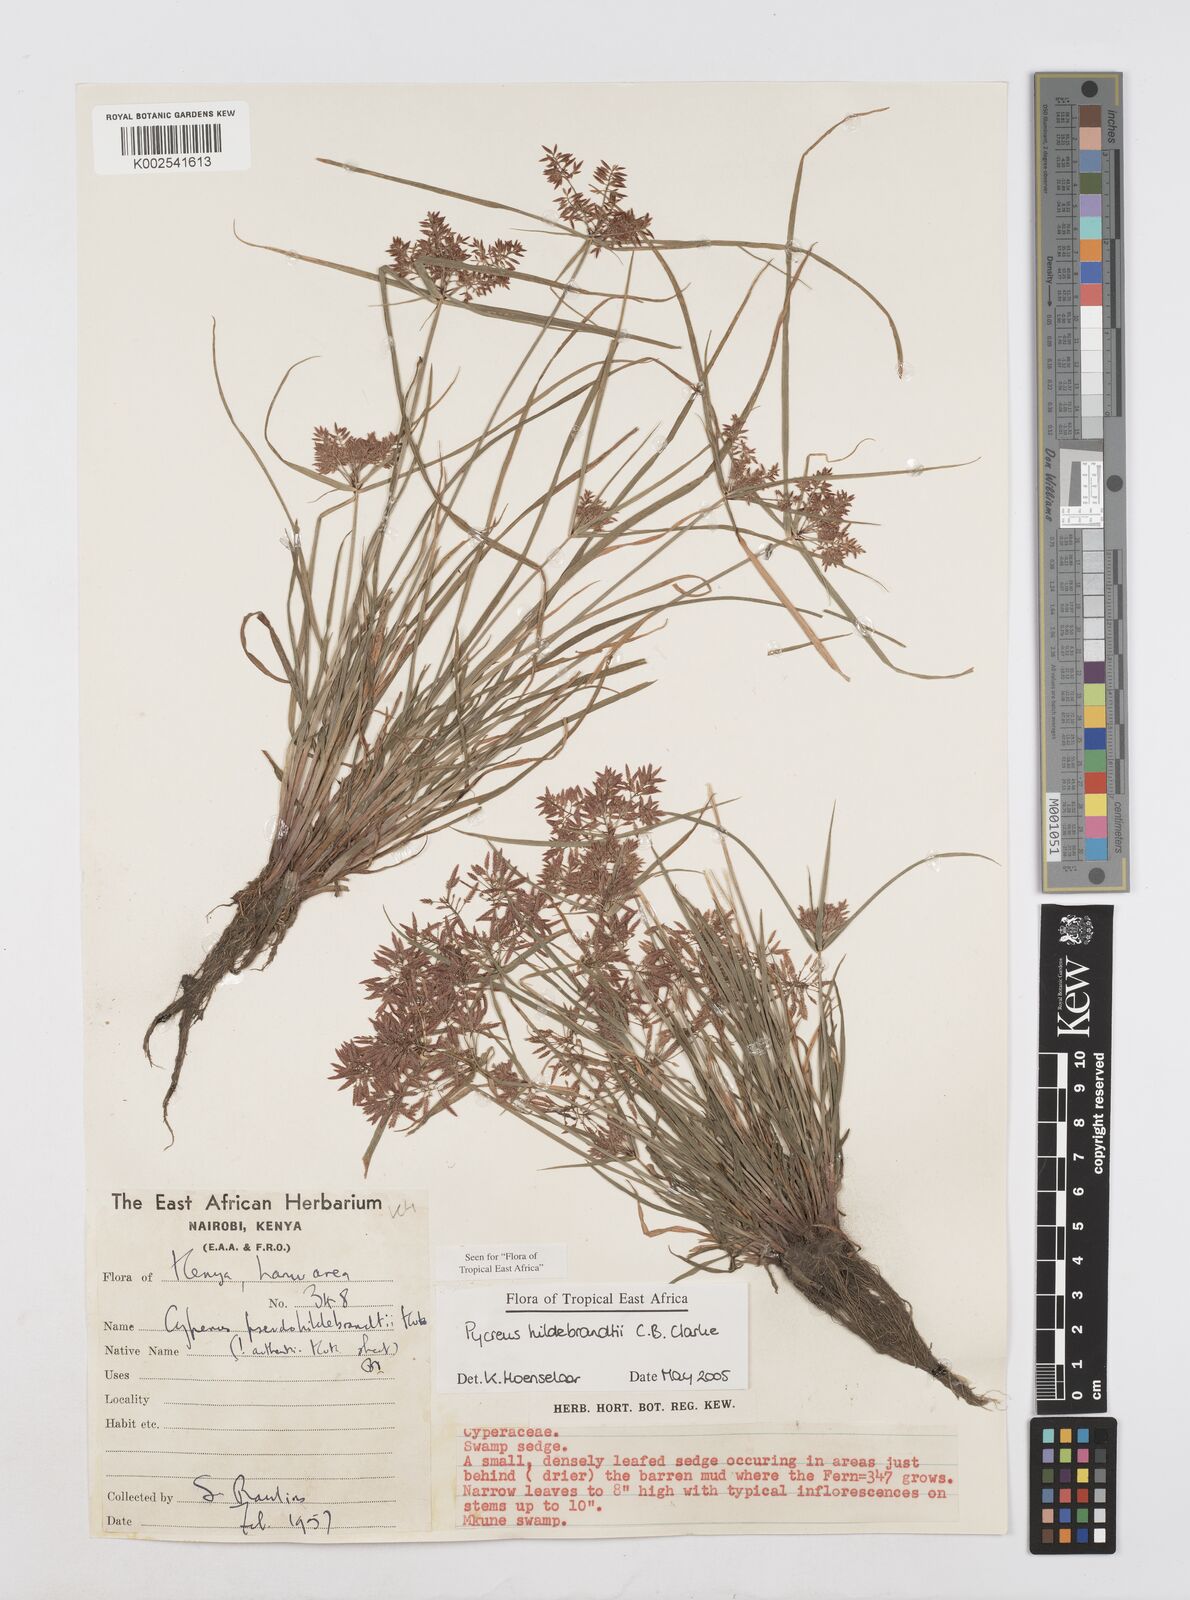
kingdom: Plantae
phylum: Tracheophyta
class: Liliopsida
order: Poales
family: Cyperaceae
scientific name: Cyperaceae
